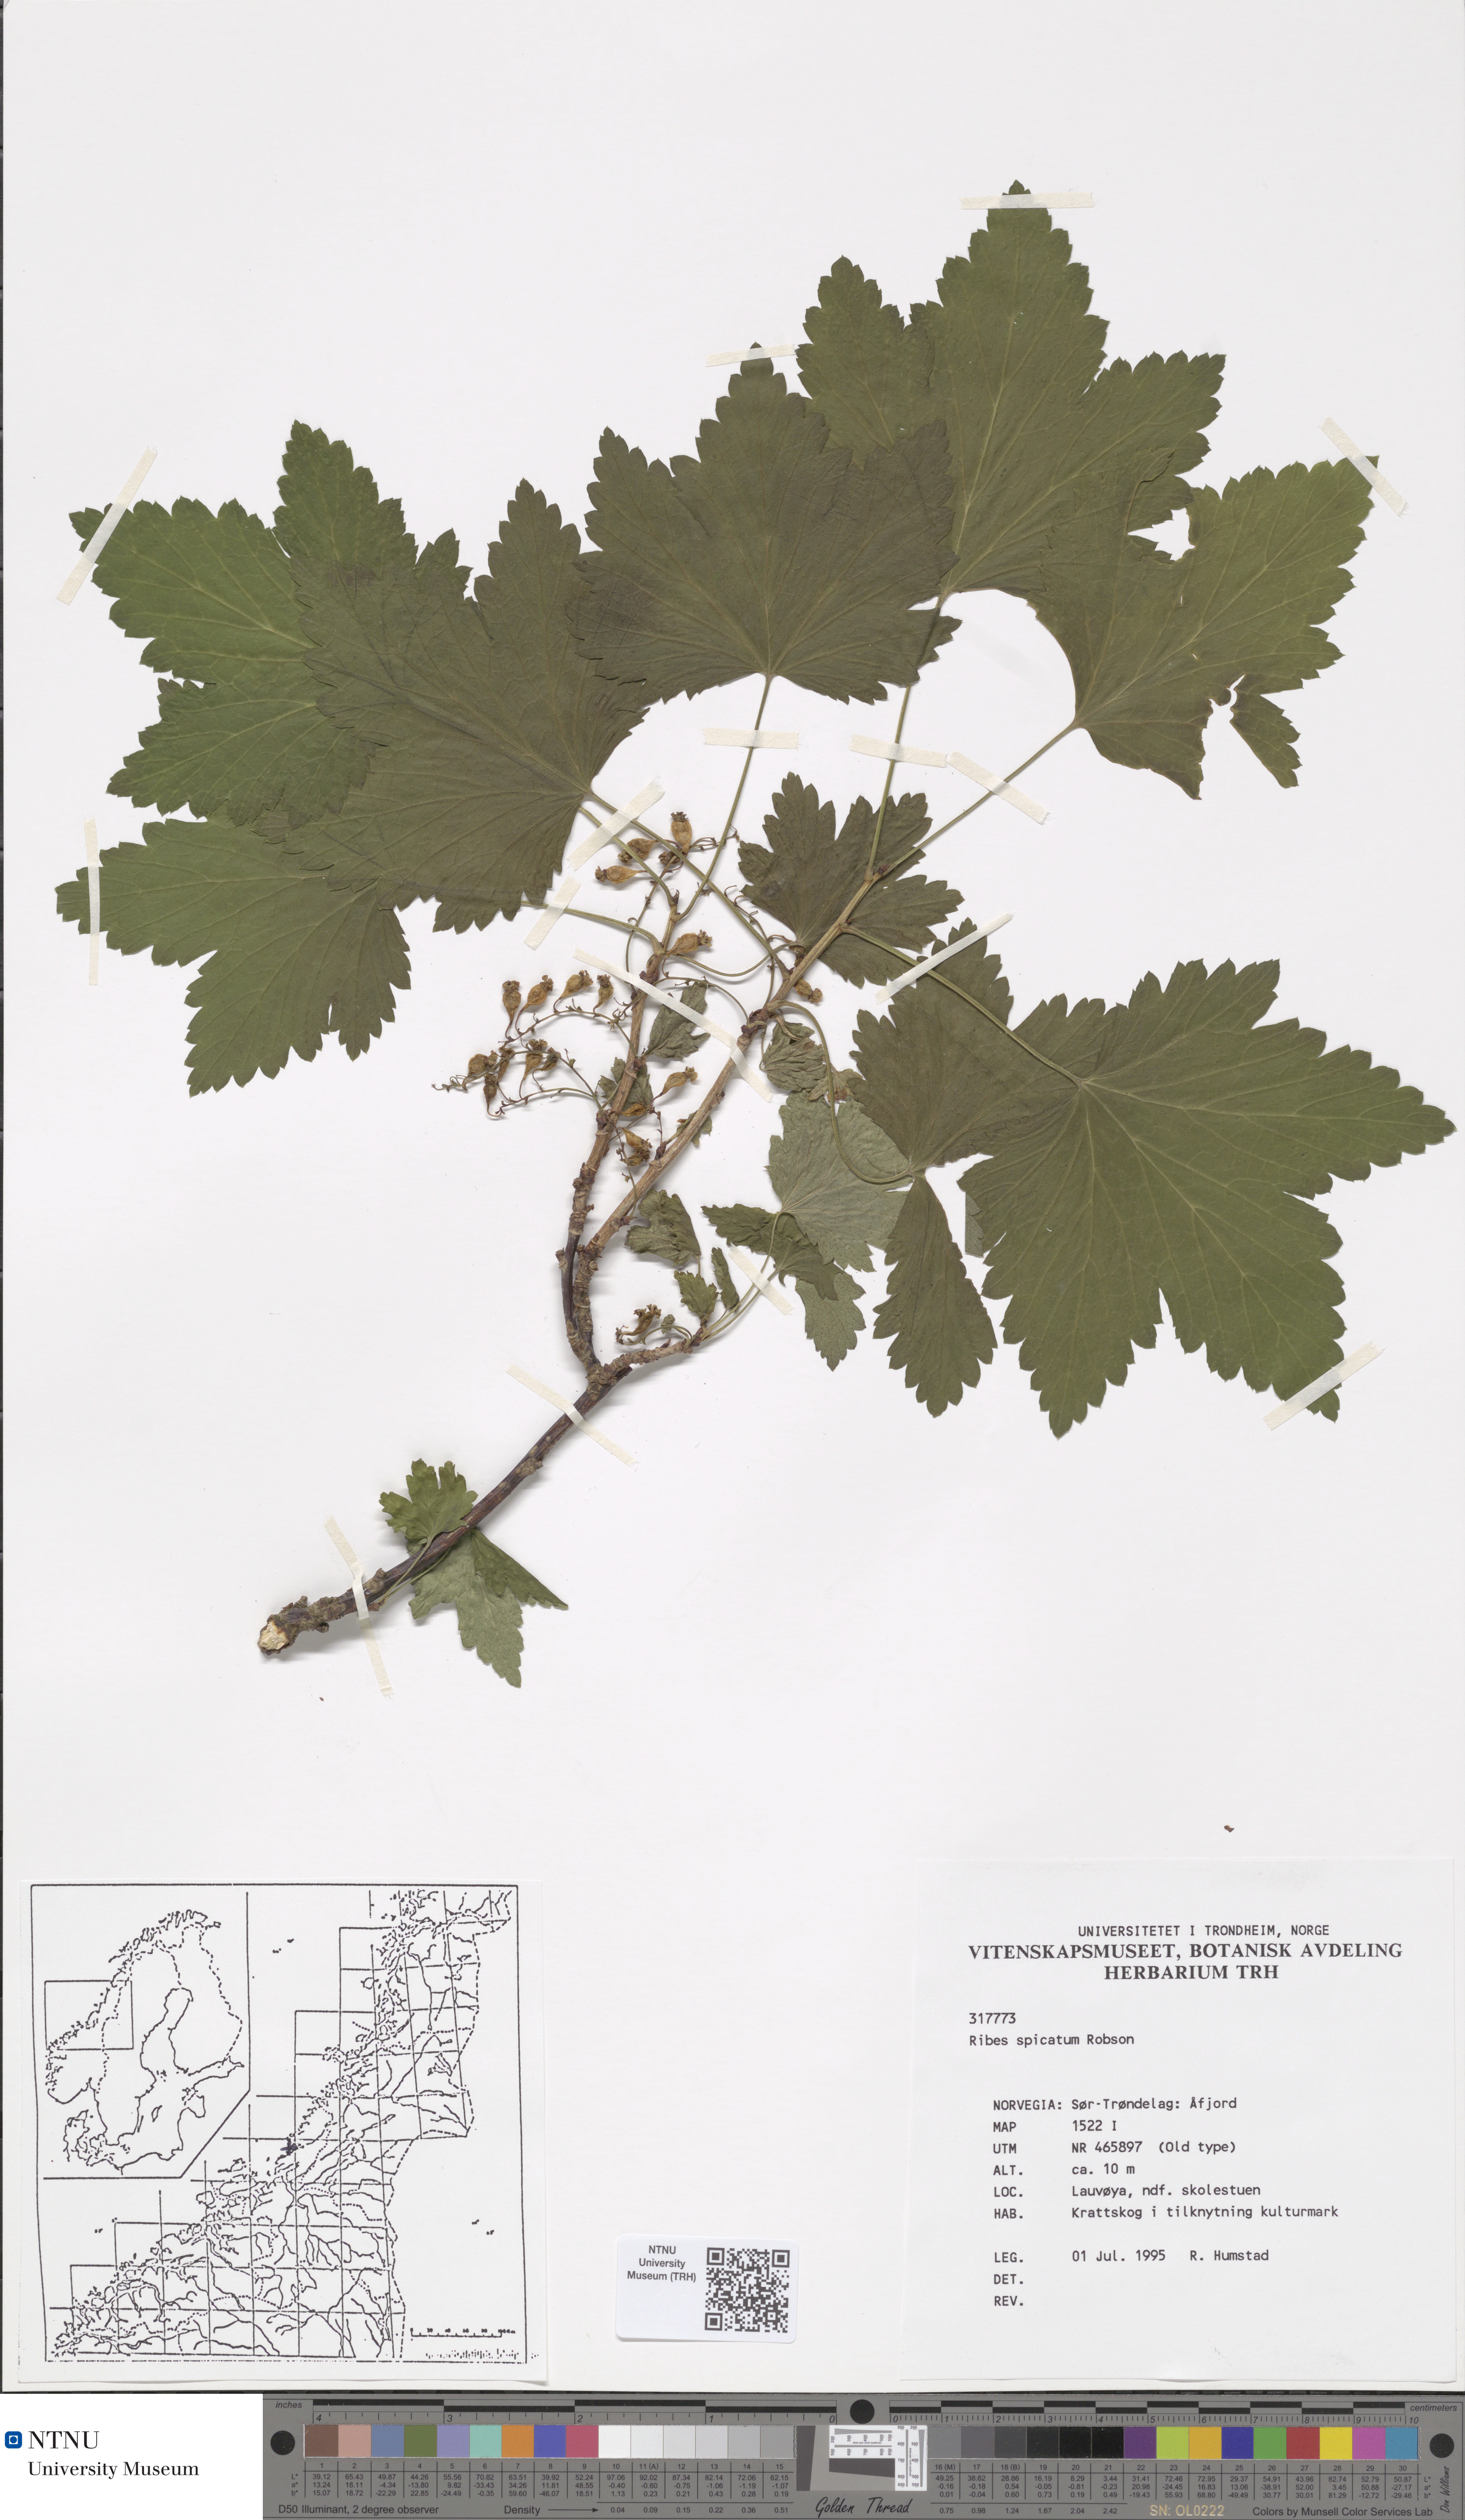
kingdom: Plantae
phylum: Tracheophyta
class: Magnoliopsida
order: Saxifragales
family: Grossulariaceae
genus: Ribes
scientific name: Ribes spicatum
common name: Downy currant
